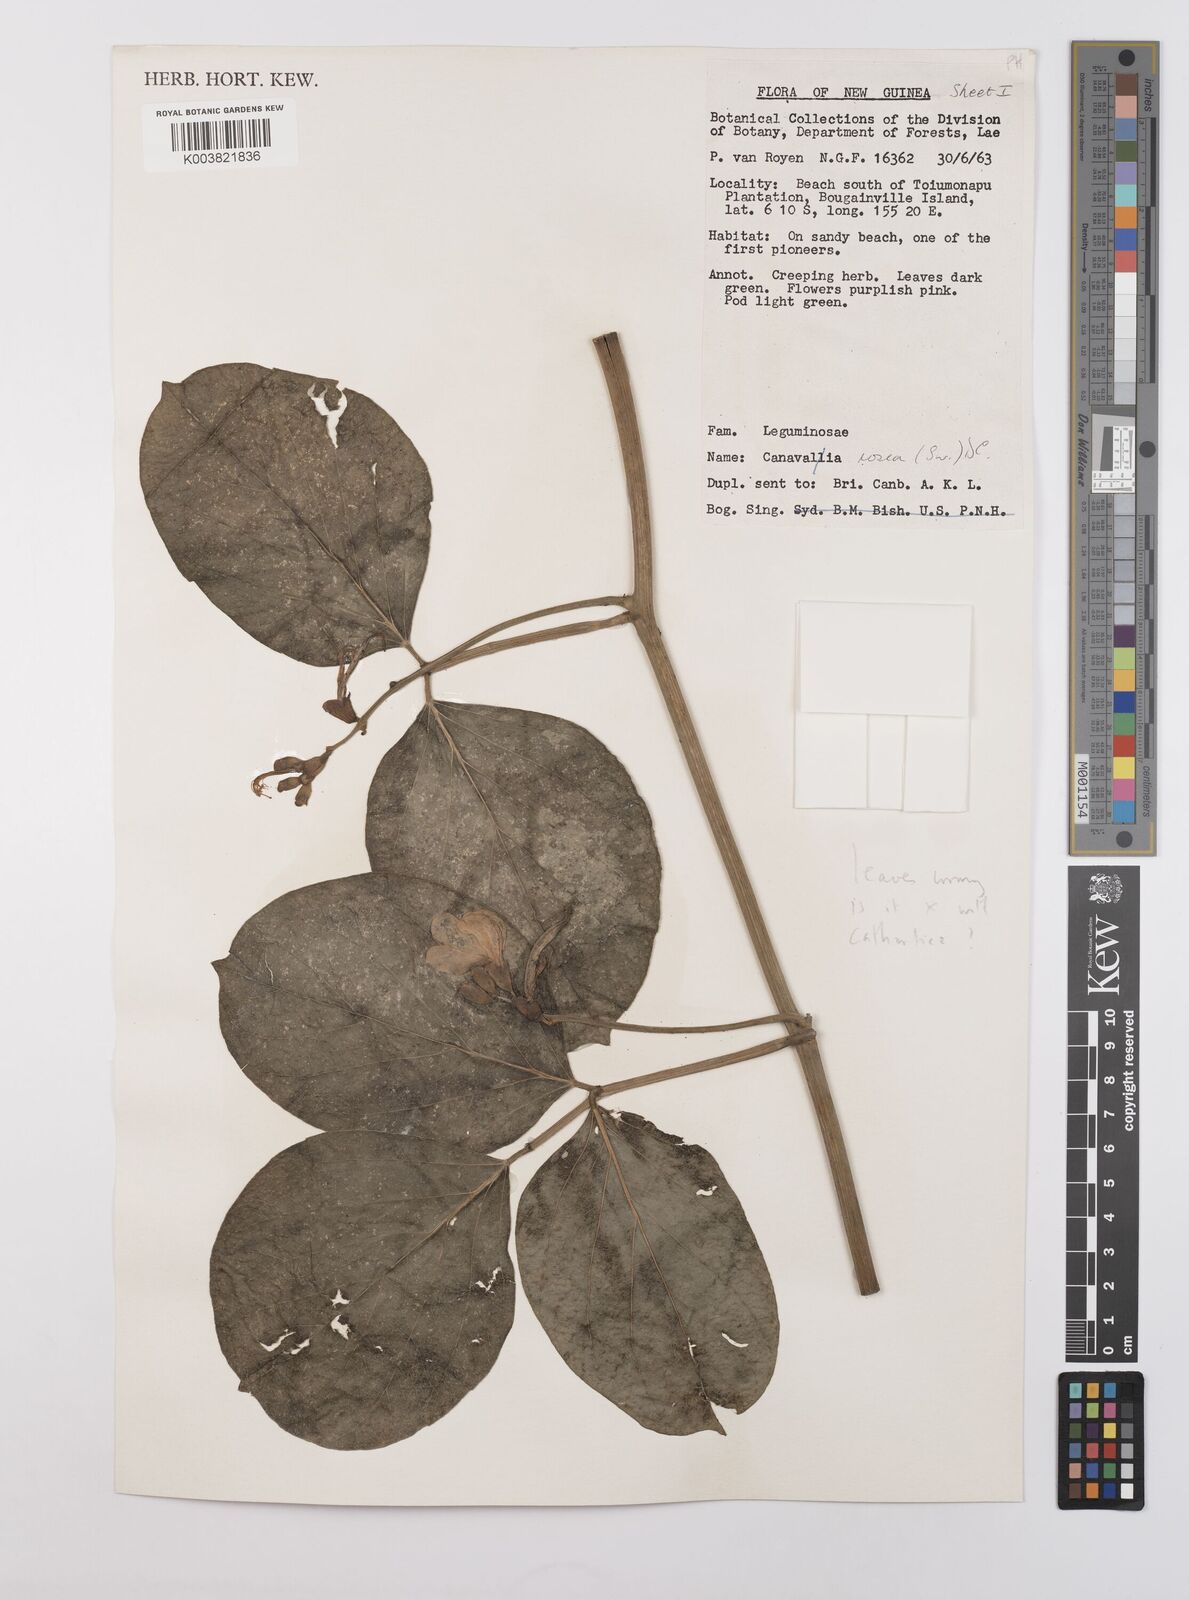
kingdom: Plantae
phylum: Tracheophyta
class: Magnoliopsida
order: Fabales
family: Fabaceae
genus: Canavalia
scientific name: Canavalia rosea
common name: Beach-bean
